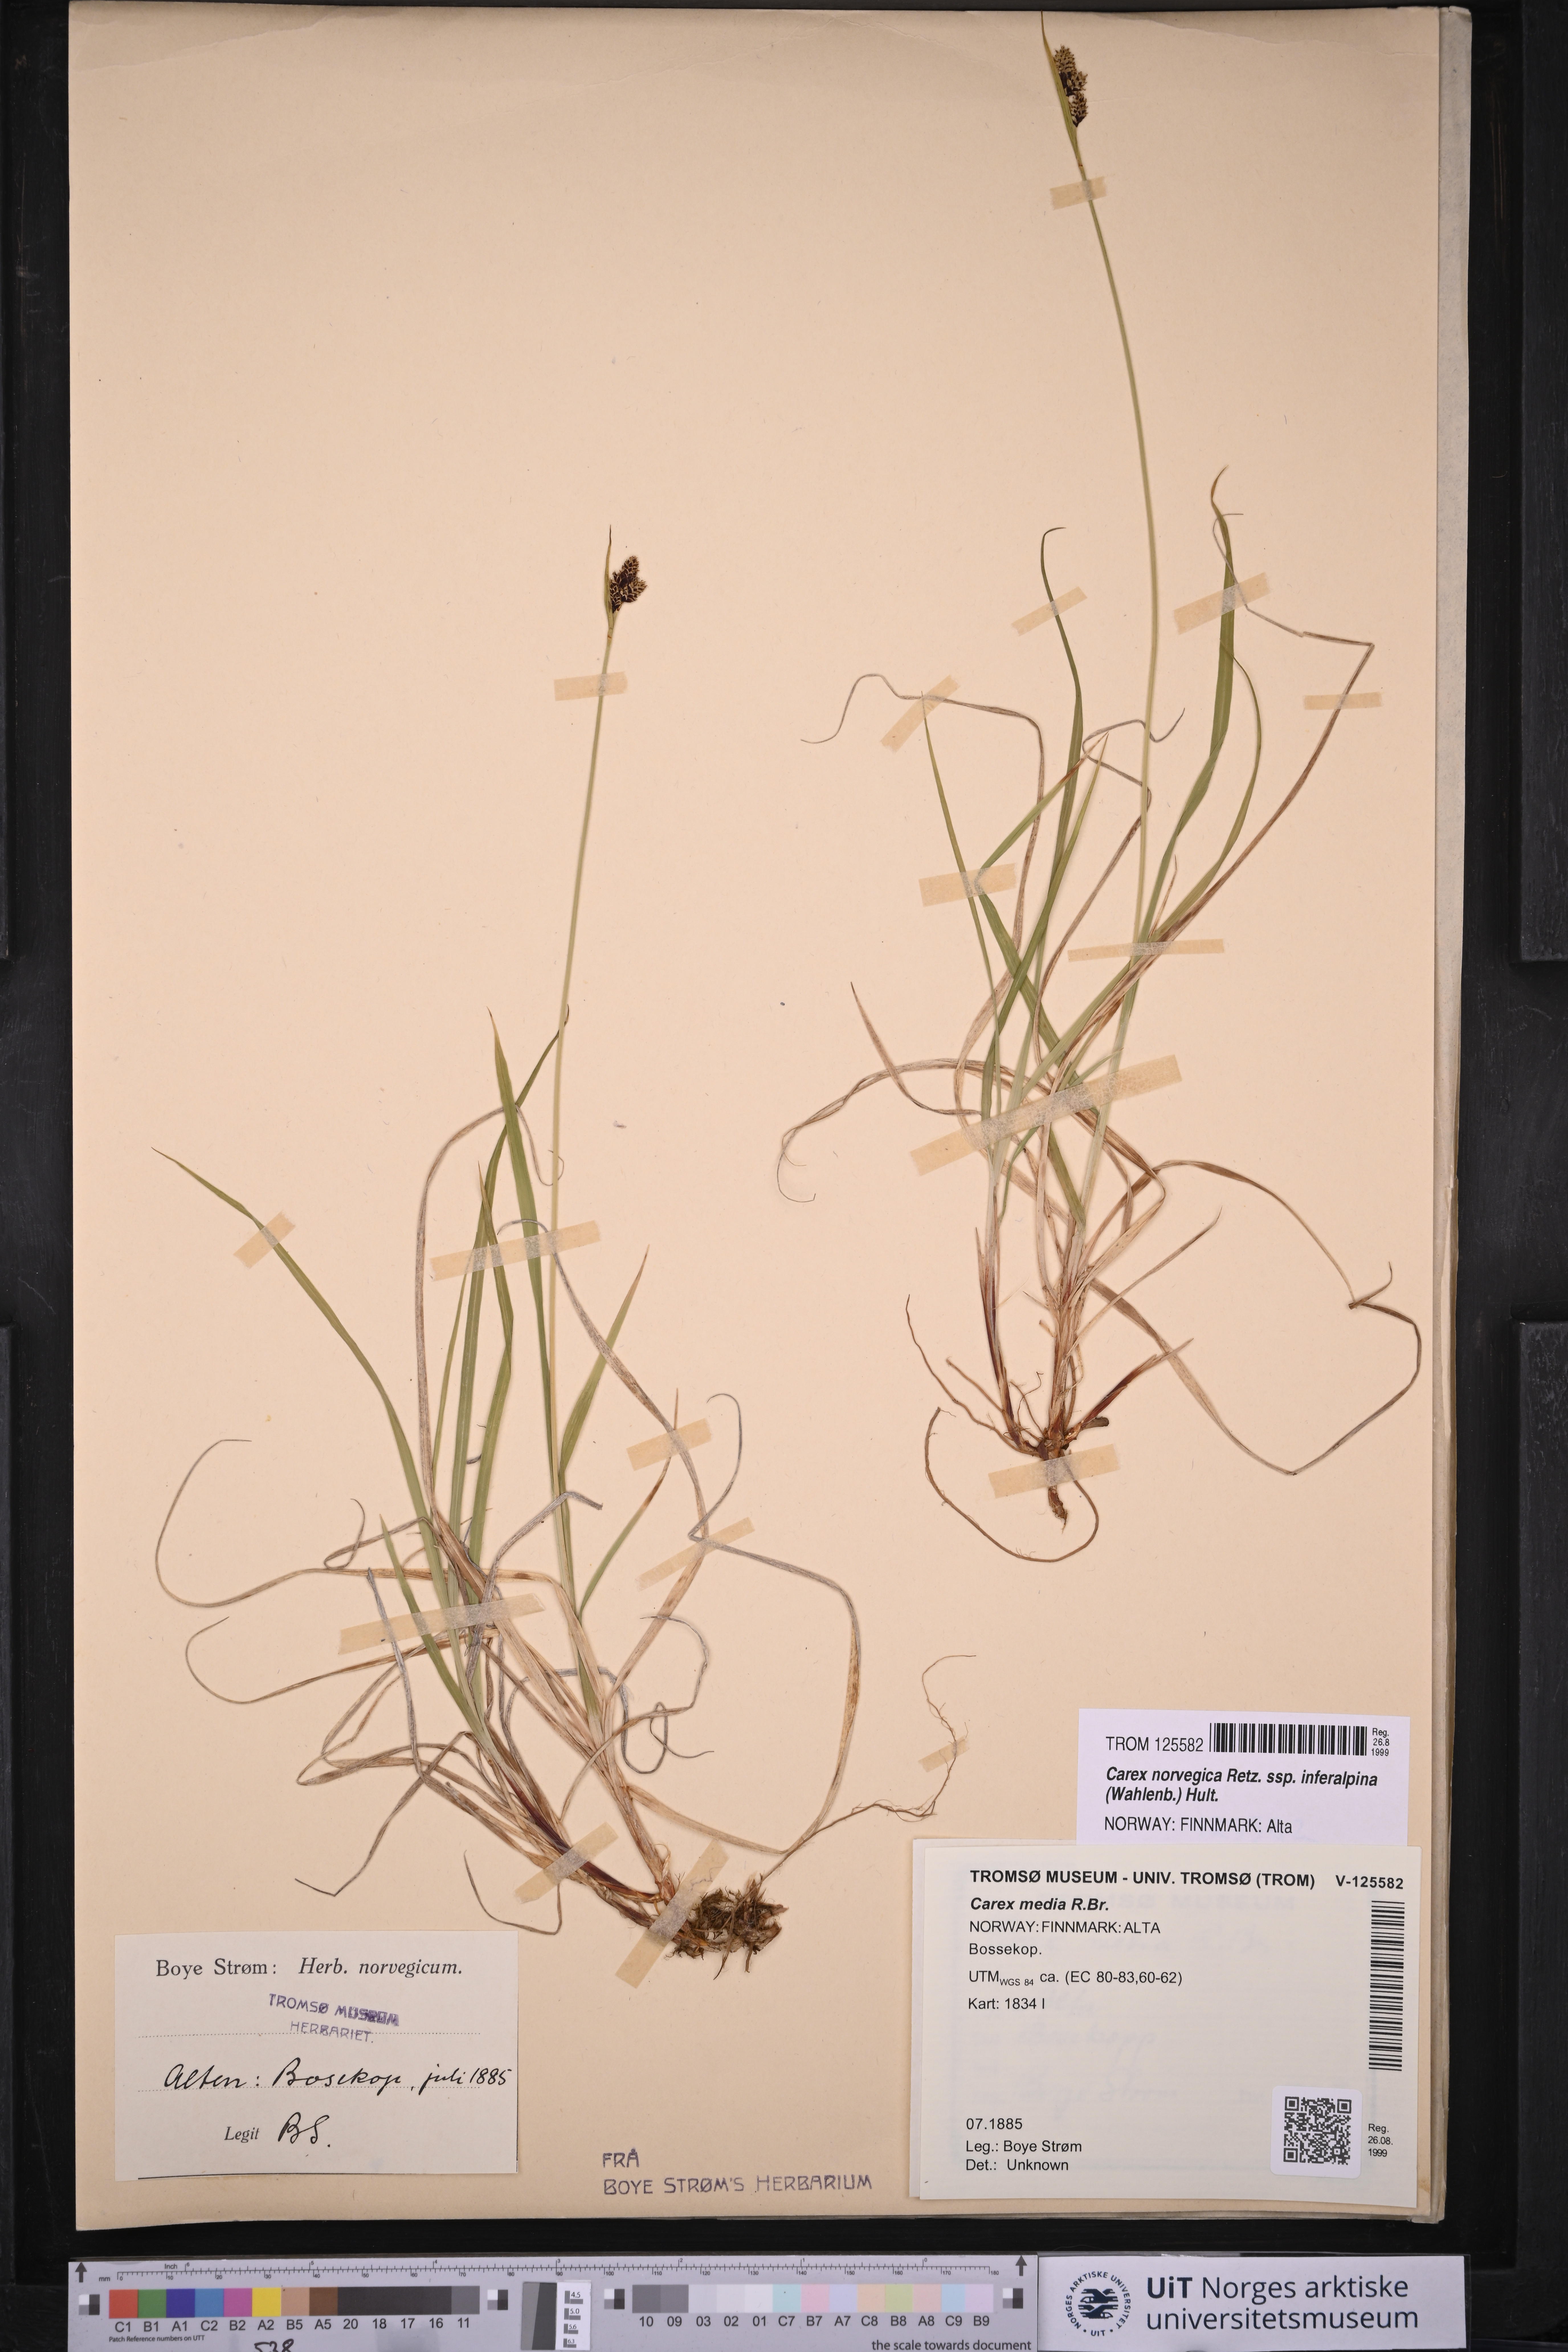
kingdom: Plantae
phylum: Tracheophyta
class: Liliopsida
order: Poales
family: Cyperaceae
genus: Carex
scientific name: Carex media
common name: Alpine sedge
